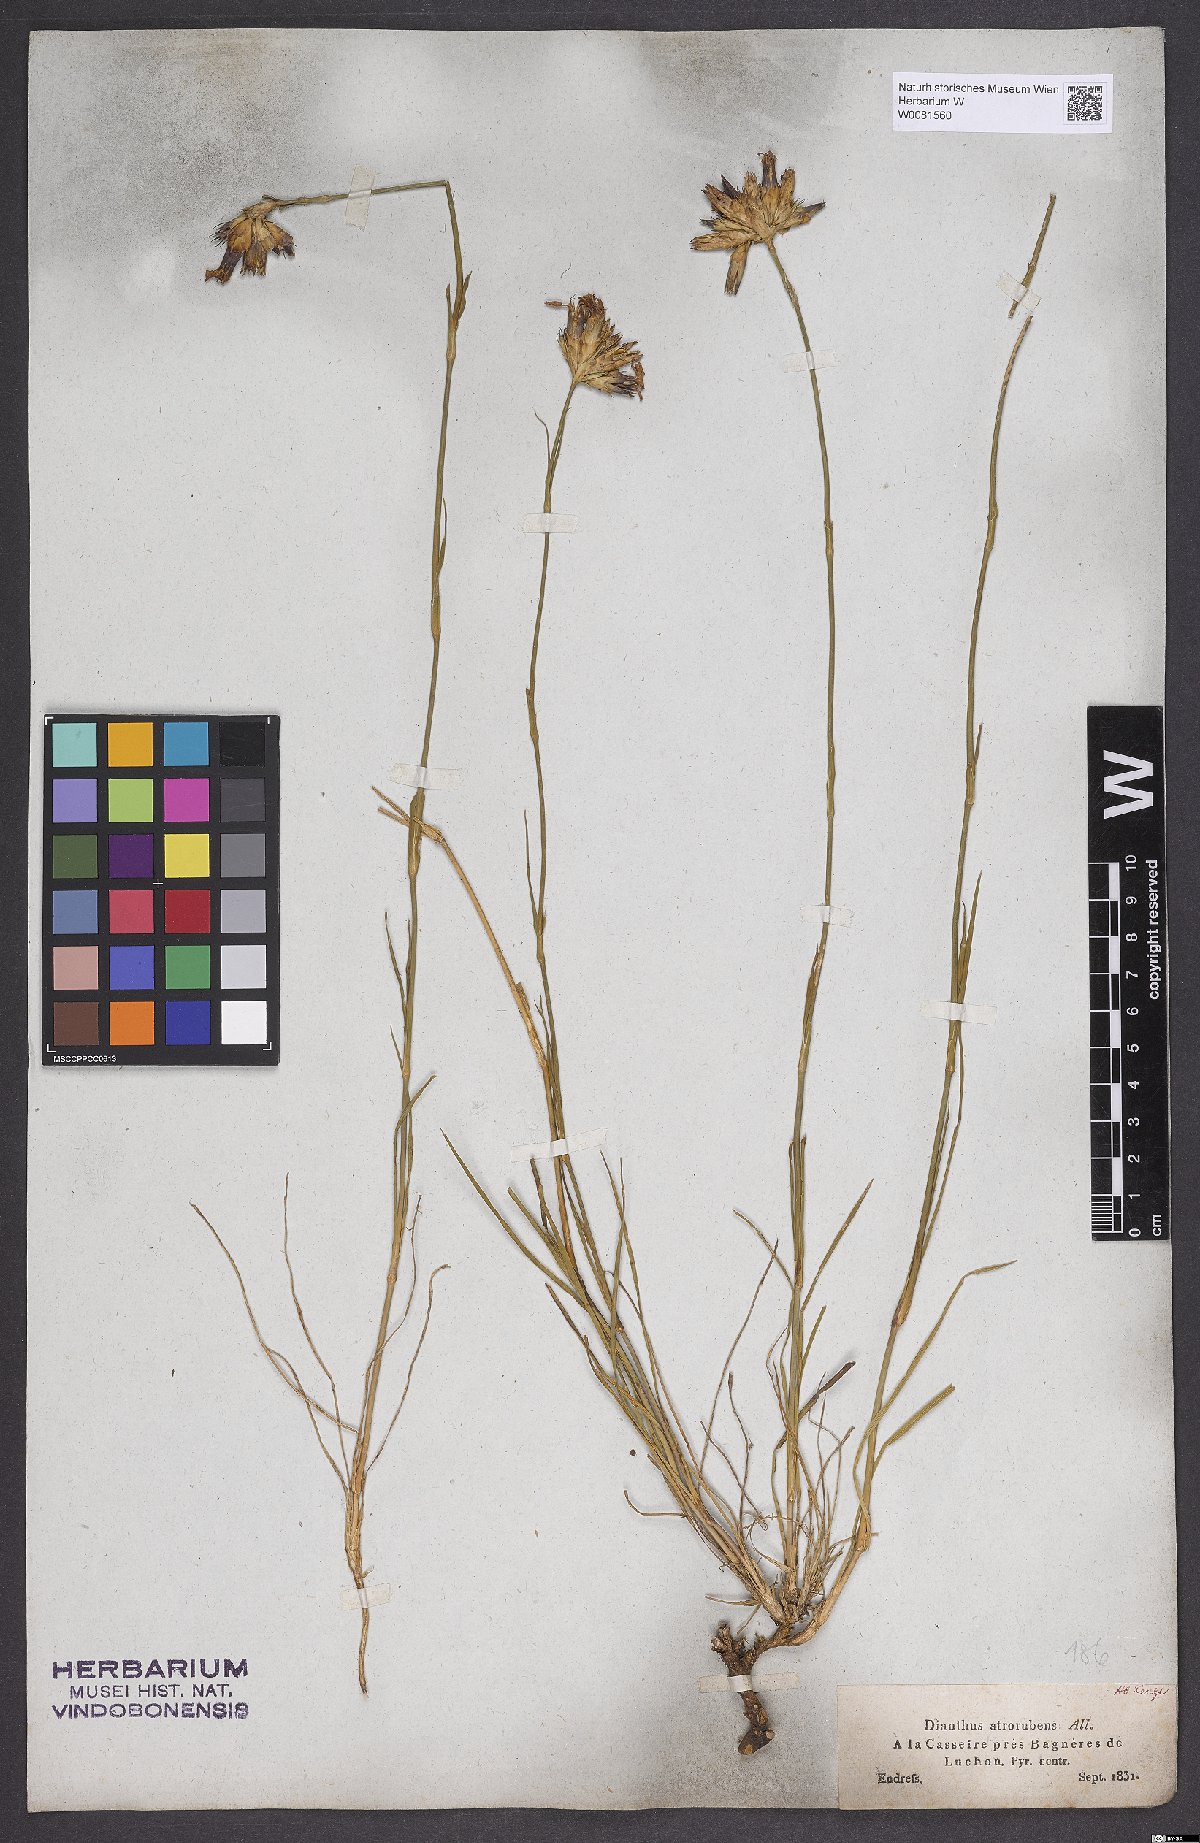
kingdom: Plantae
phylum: Tracheophyta
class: Magnoliopsida
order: Caryophyllales
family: Caryophyllaceae
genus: Dianthus
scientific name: Dianthus carthusianorum
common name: Carthusian pink
